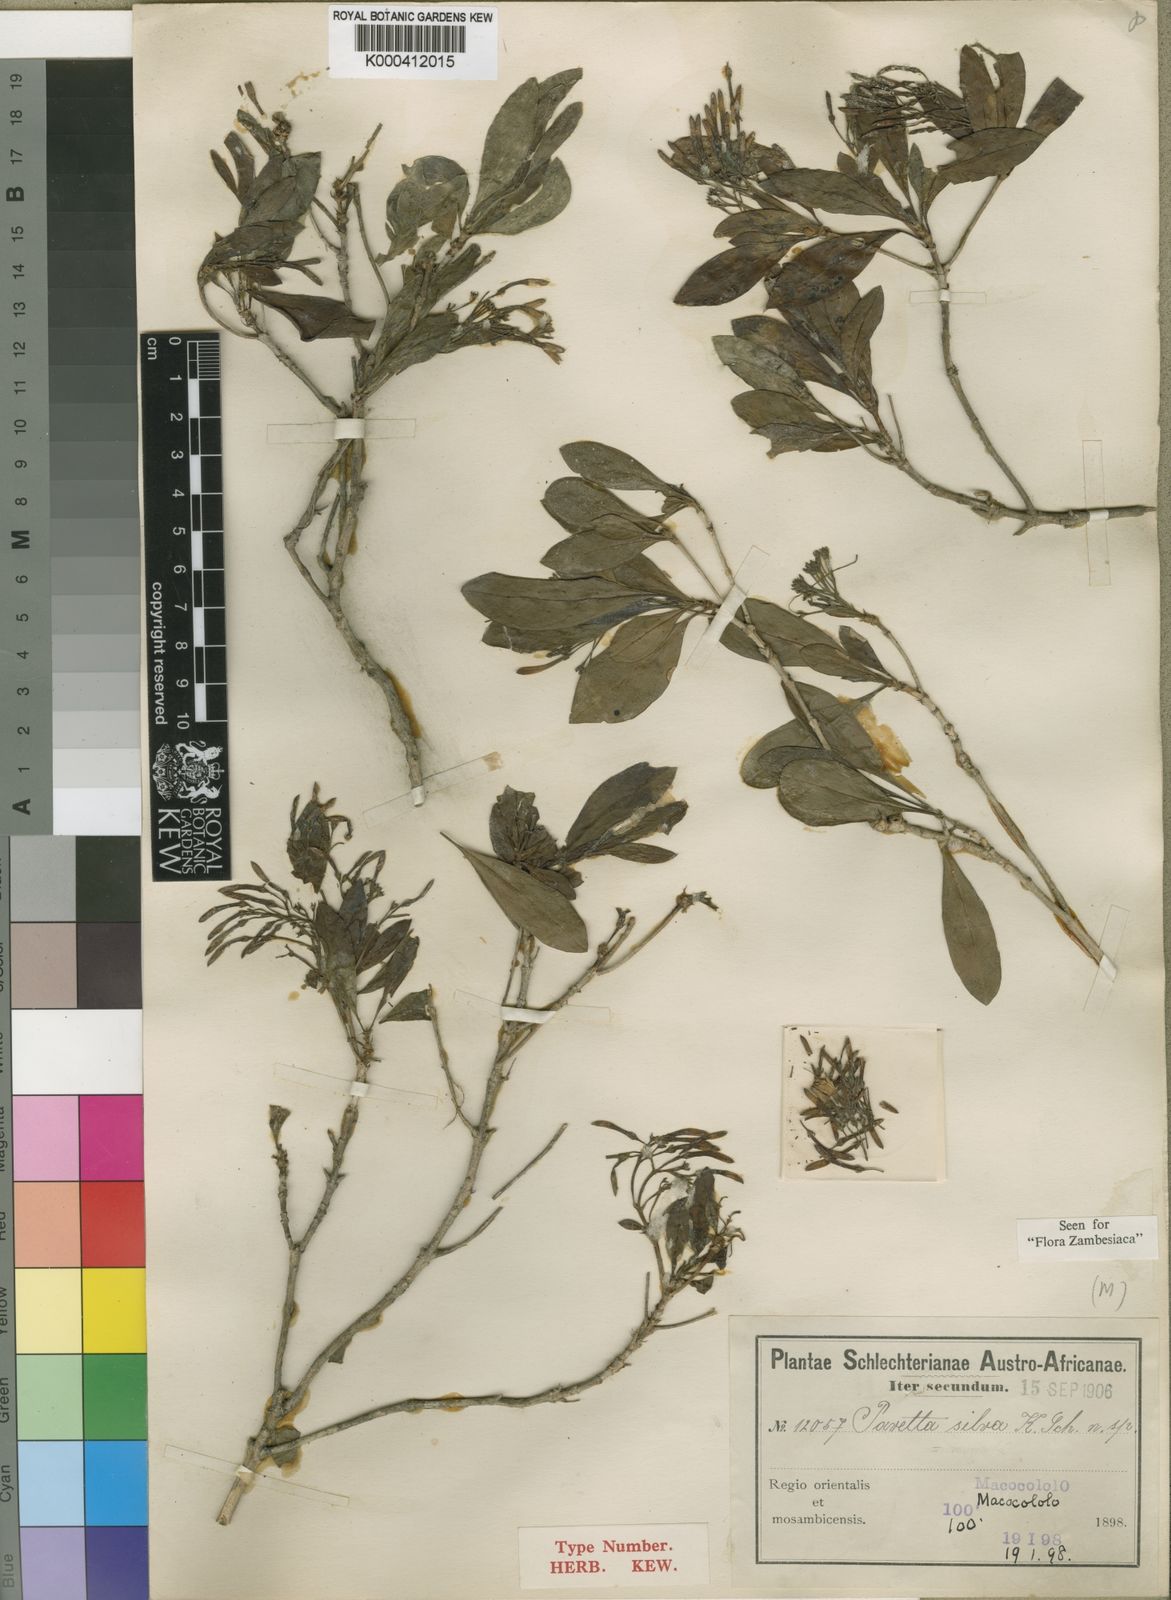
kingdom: Plantae
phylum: Tracheophyta
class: Magnoliopsida
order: Gentianales
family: Rubiaceae
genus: Pavetta
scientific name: Pavetta revoluta
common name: Dune brides-bush
